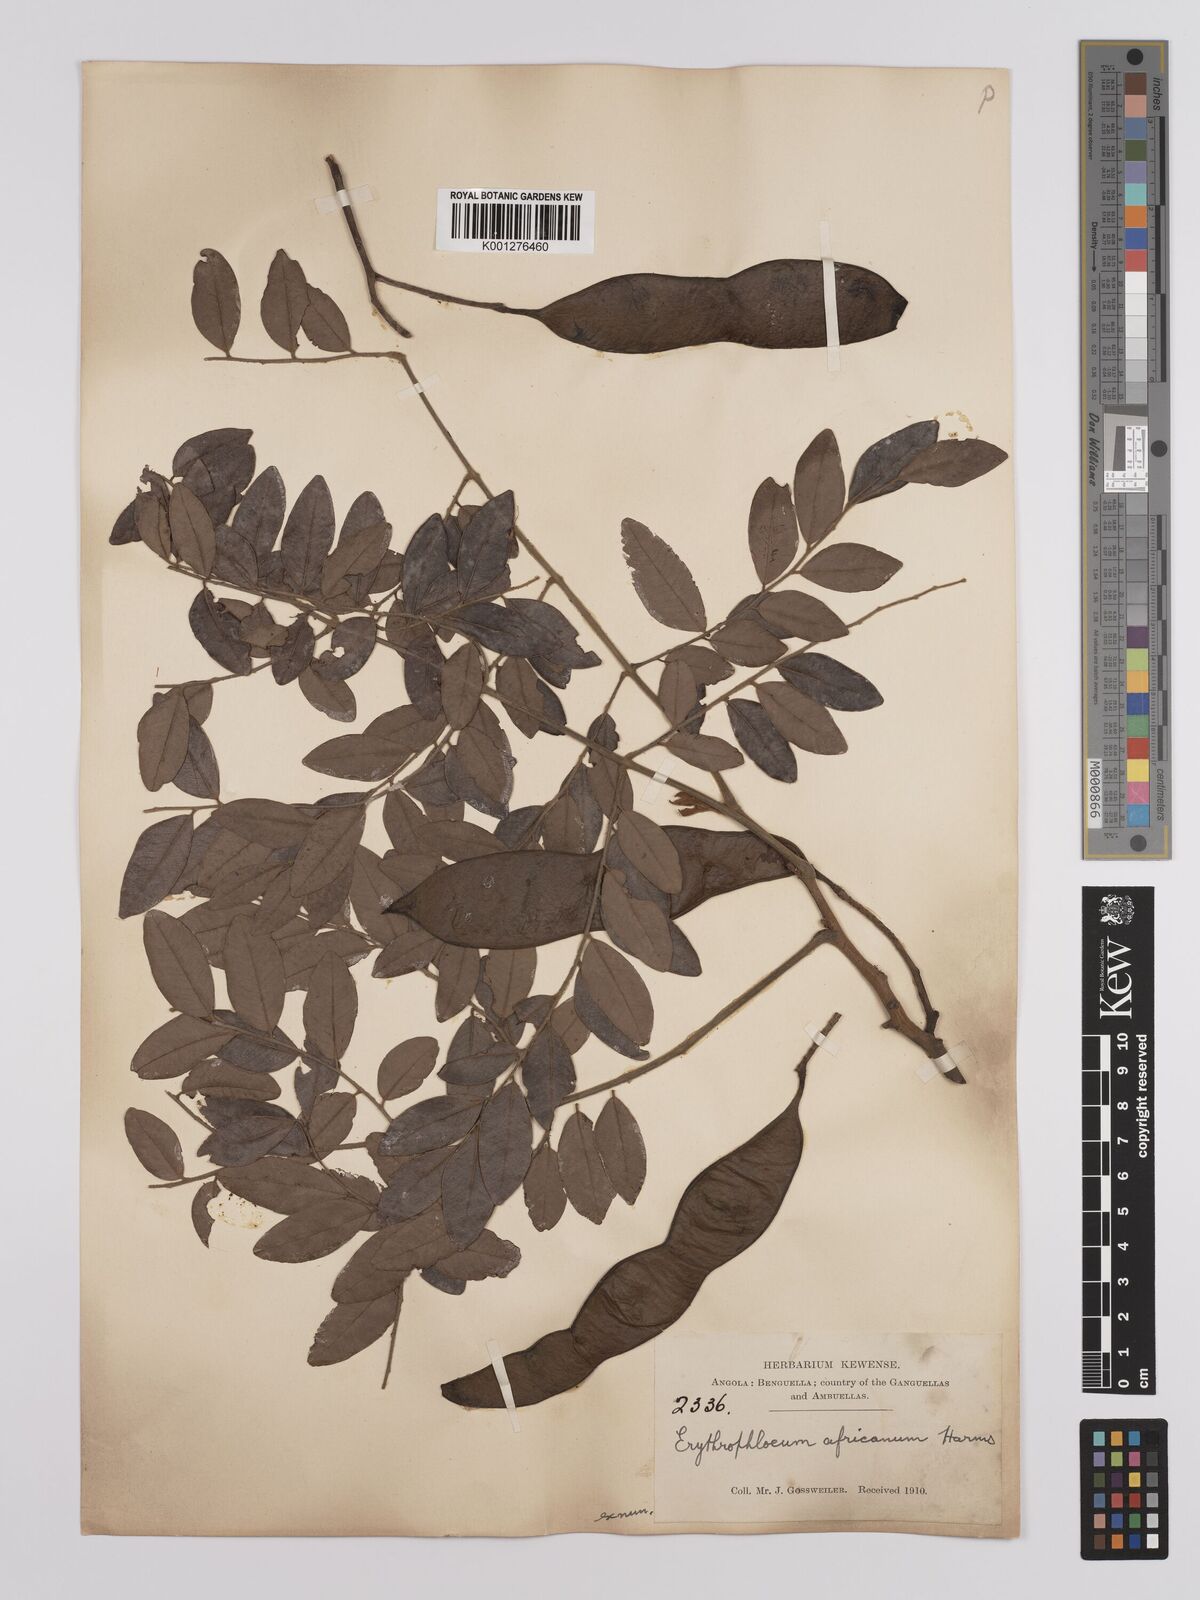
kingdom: Plantae
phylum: Tracheophyta
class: Magnoliopsida
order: Fabales
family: Fabaceae
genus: Erythrophleum
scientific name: Erythrophleum africanum
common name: African blackwood
